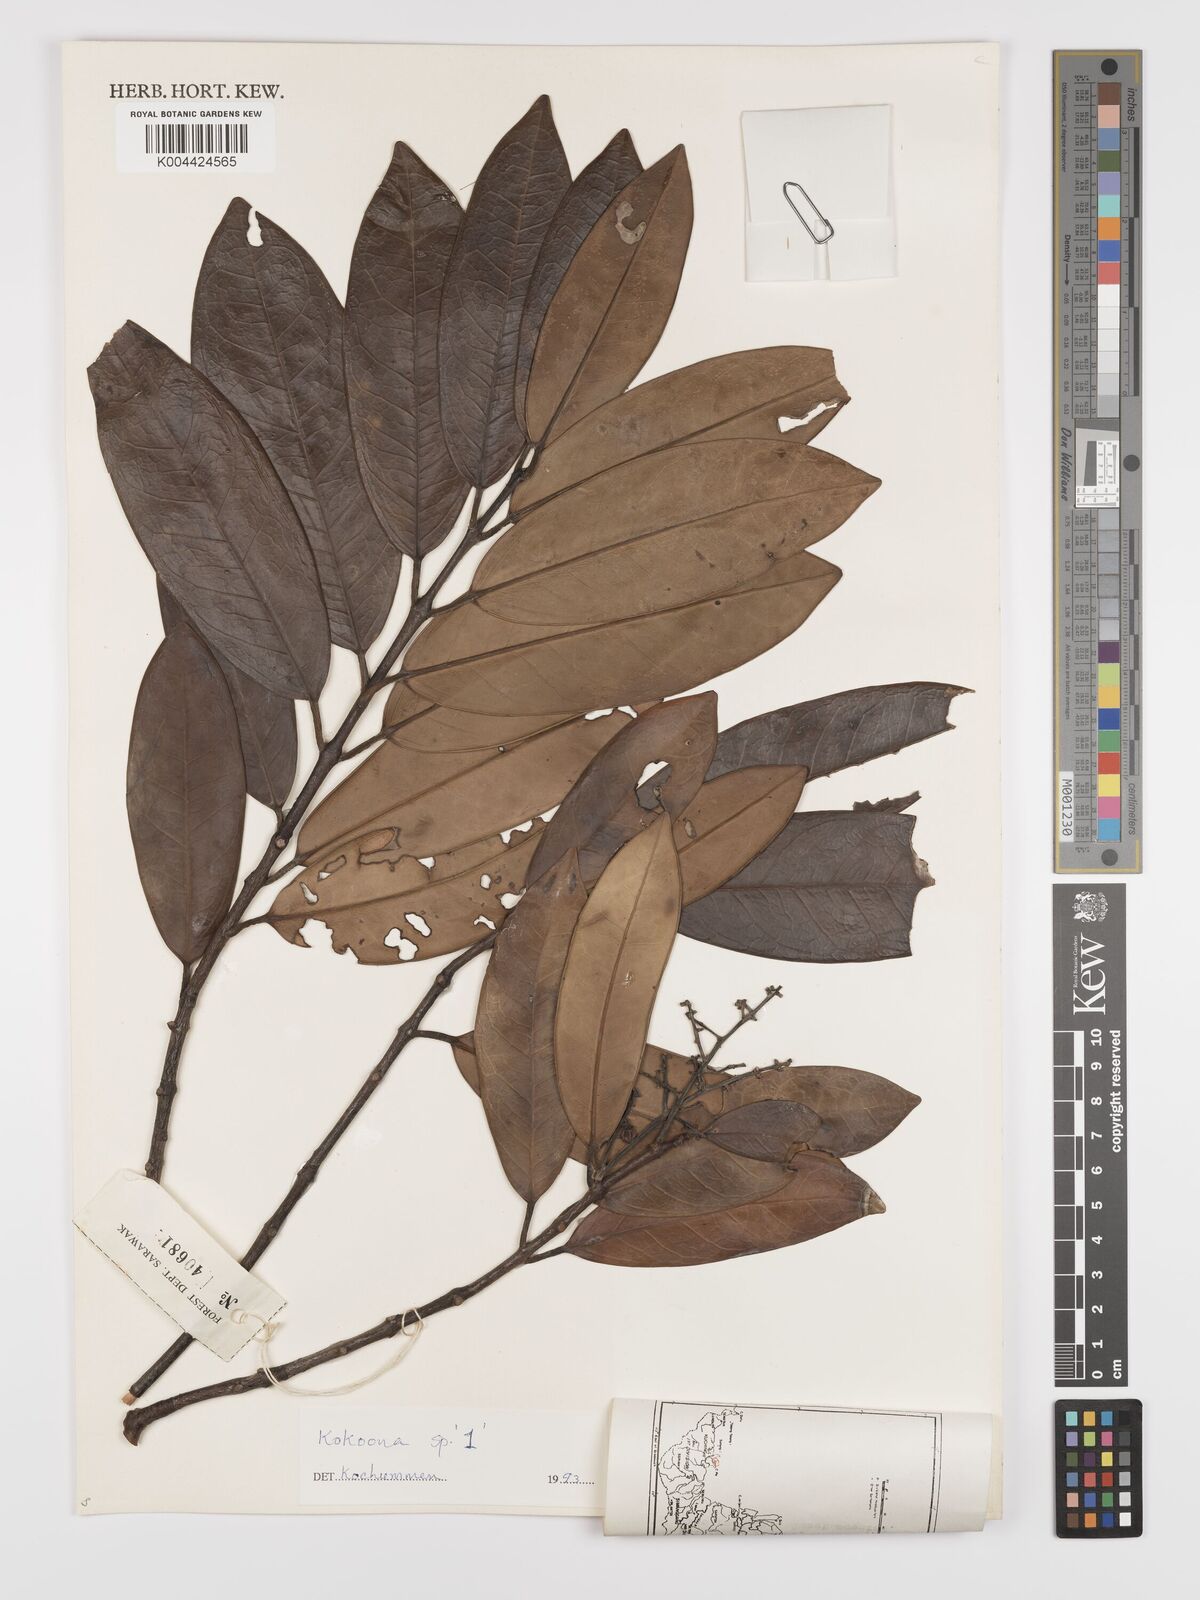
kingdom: Plantae
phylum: Tracheophyta
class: Magnoliopsida
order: Celastrales
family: Celastraceae
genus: Kokoona
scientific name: Kokoona littoralis
